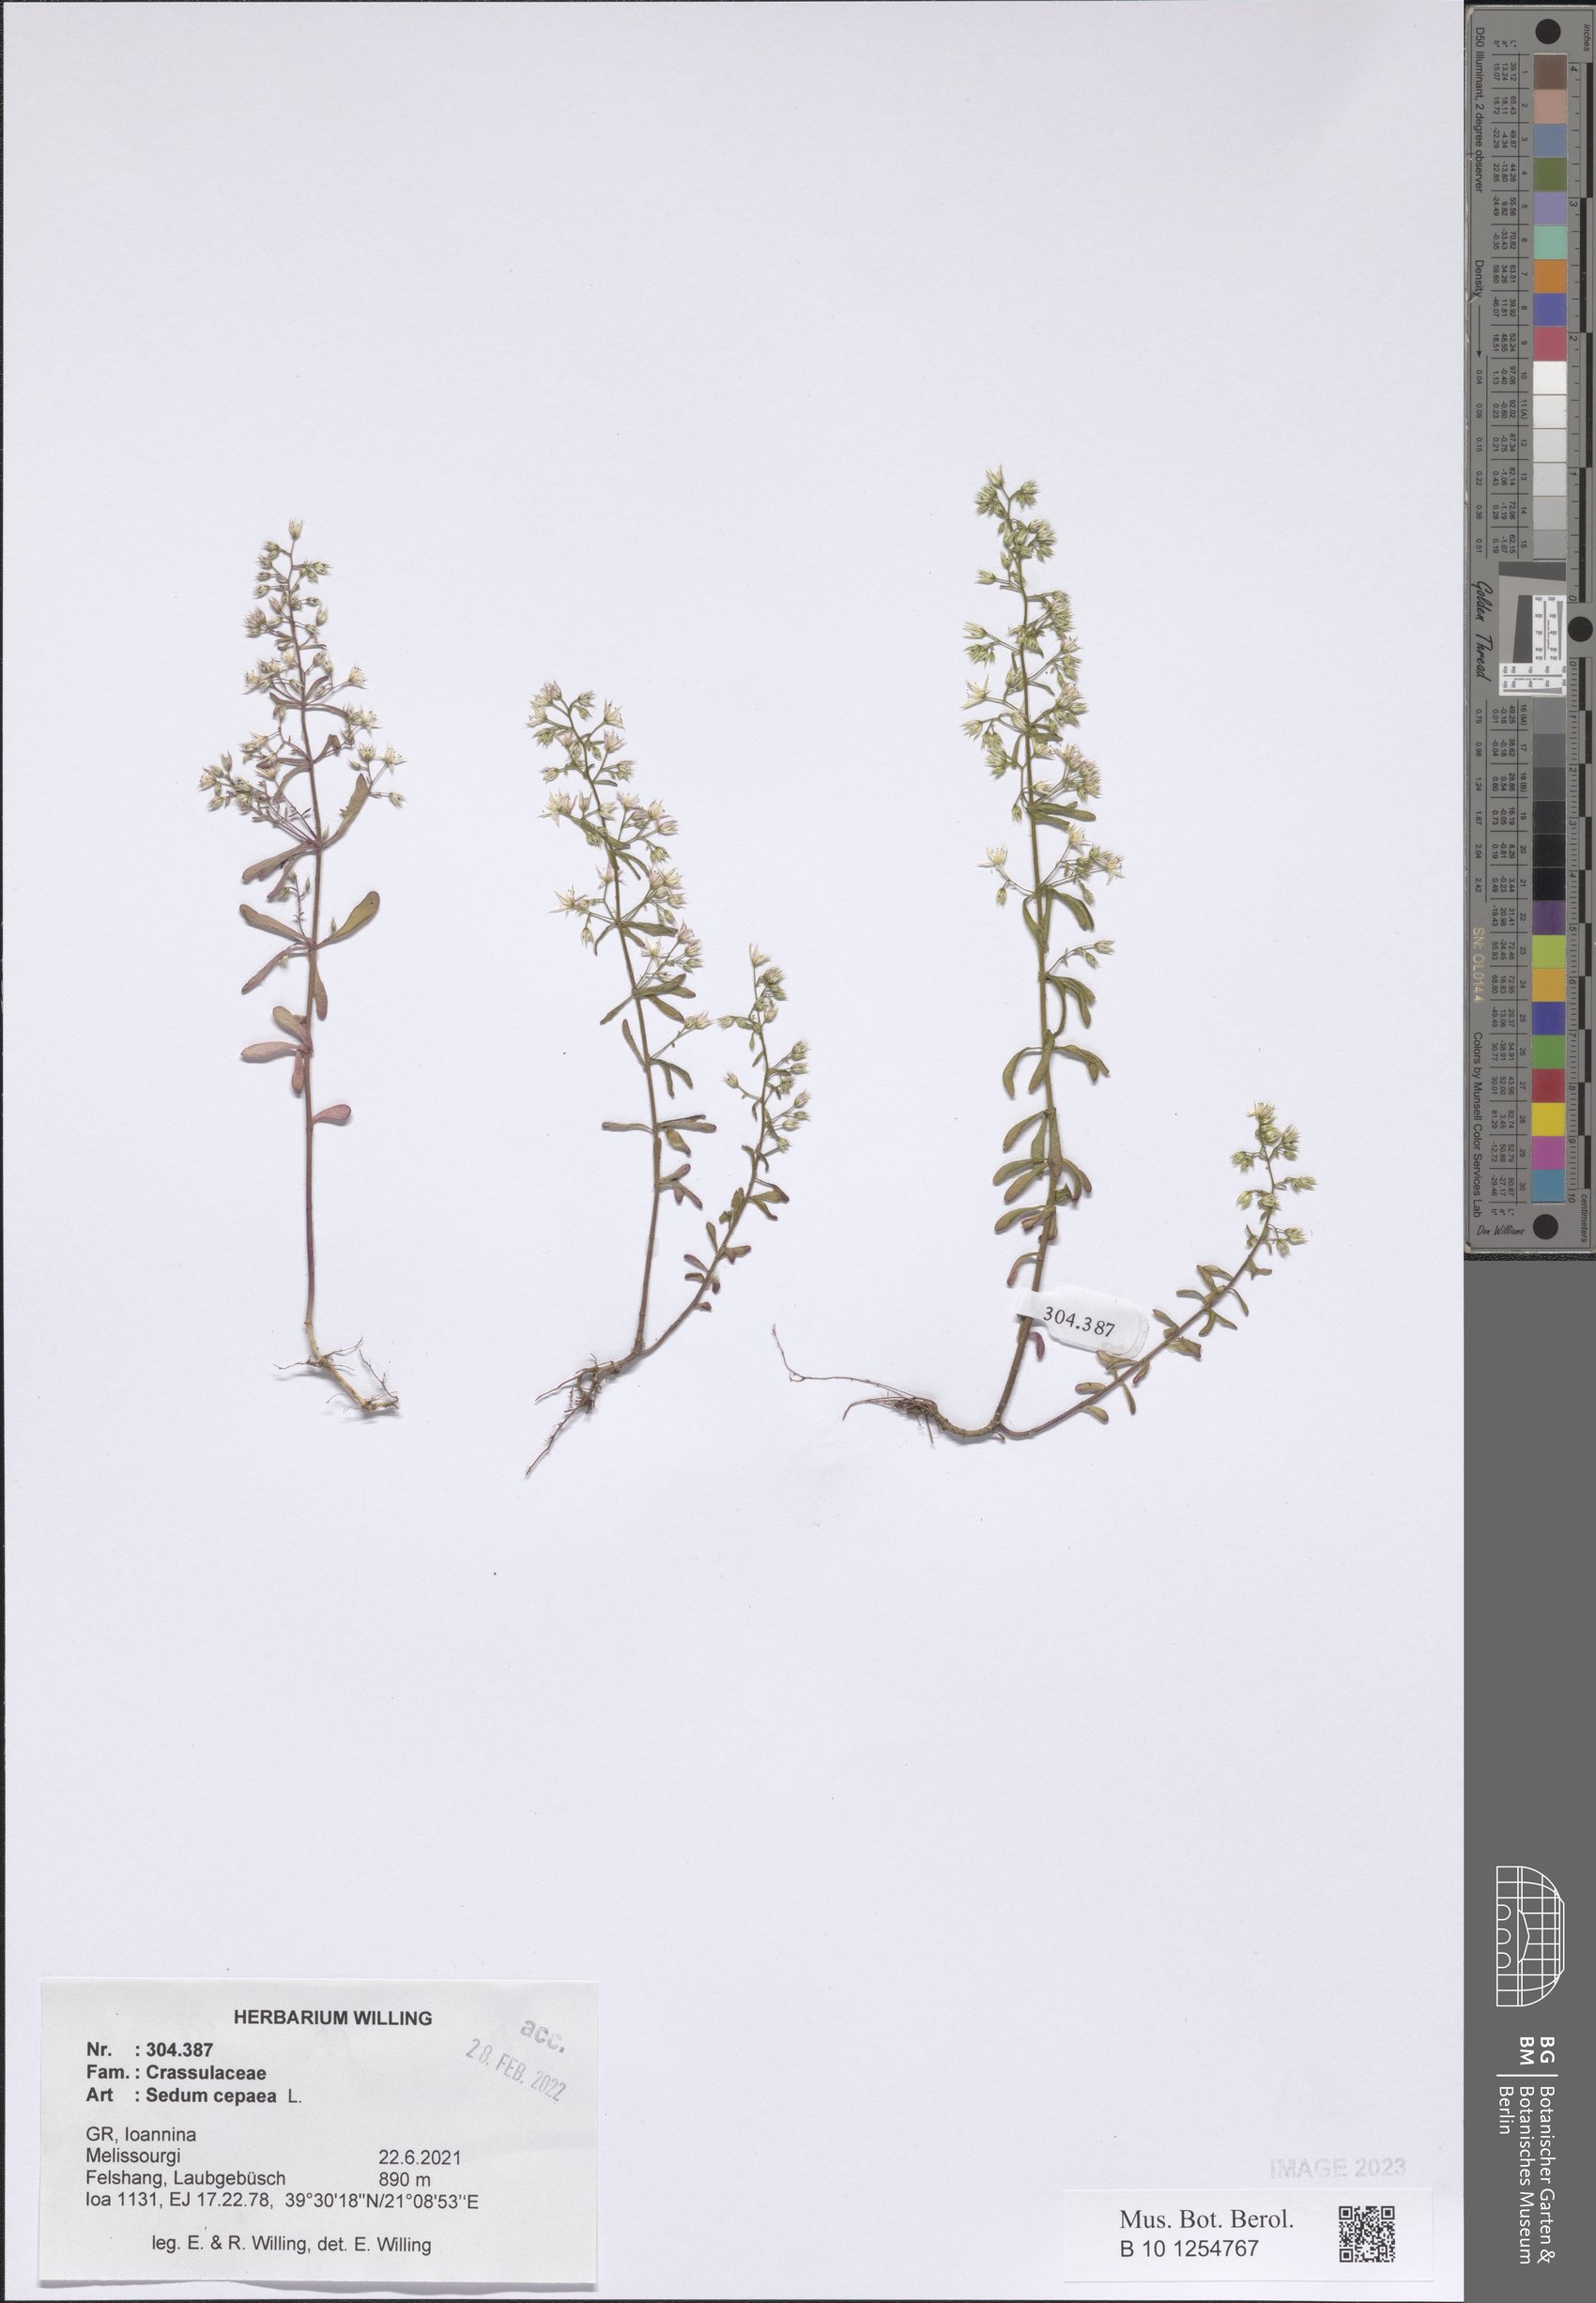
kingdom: Plantae
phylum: Tracheophyta
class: Magnoliopsida
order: Saxifragales
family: Crassulaceae
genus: Sedum
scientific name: Sedum cepaea
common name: Pink stonecrop
